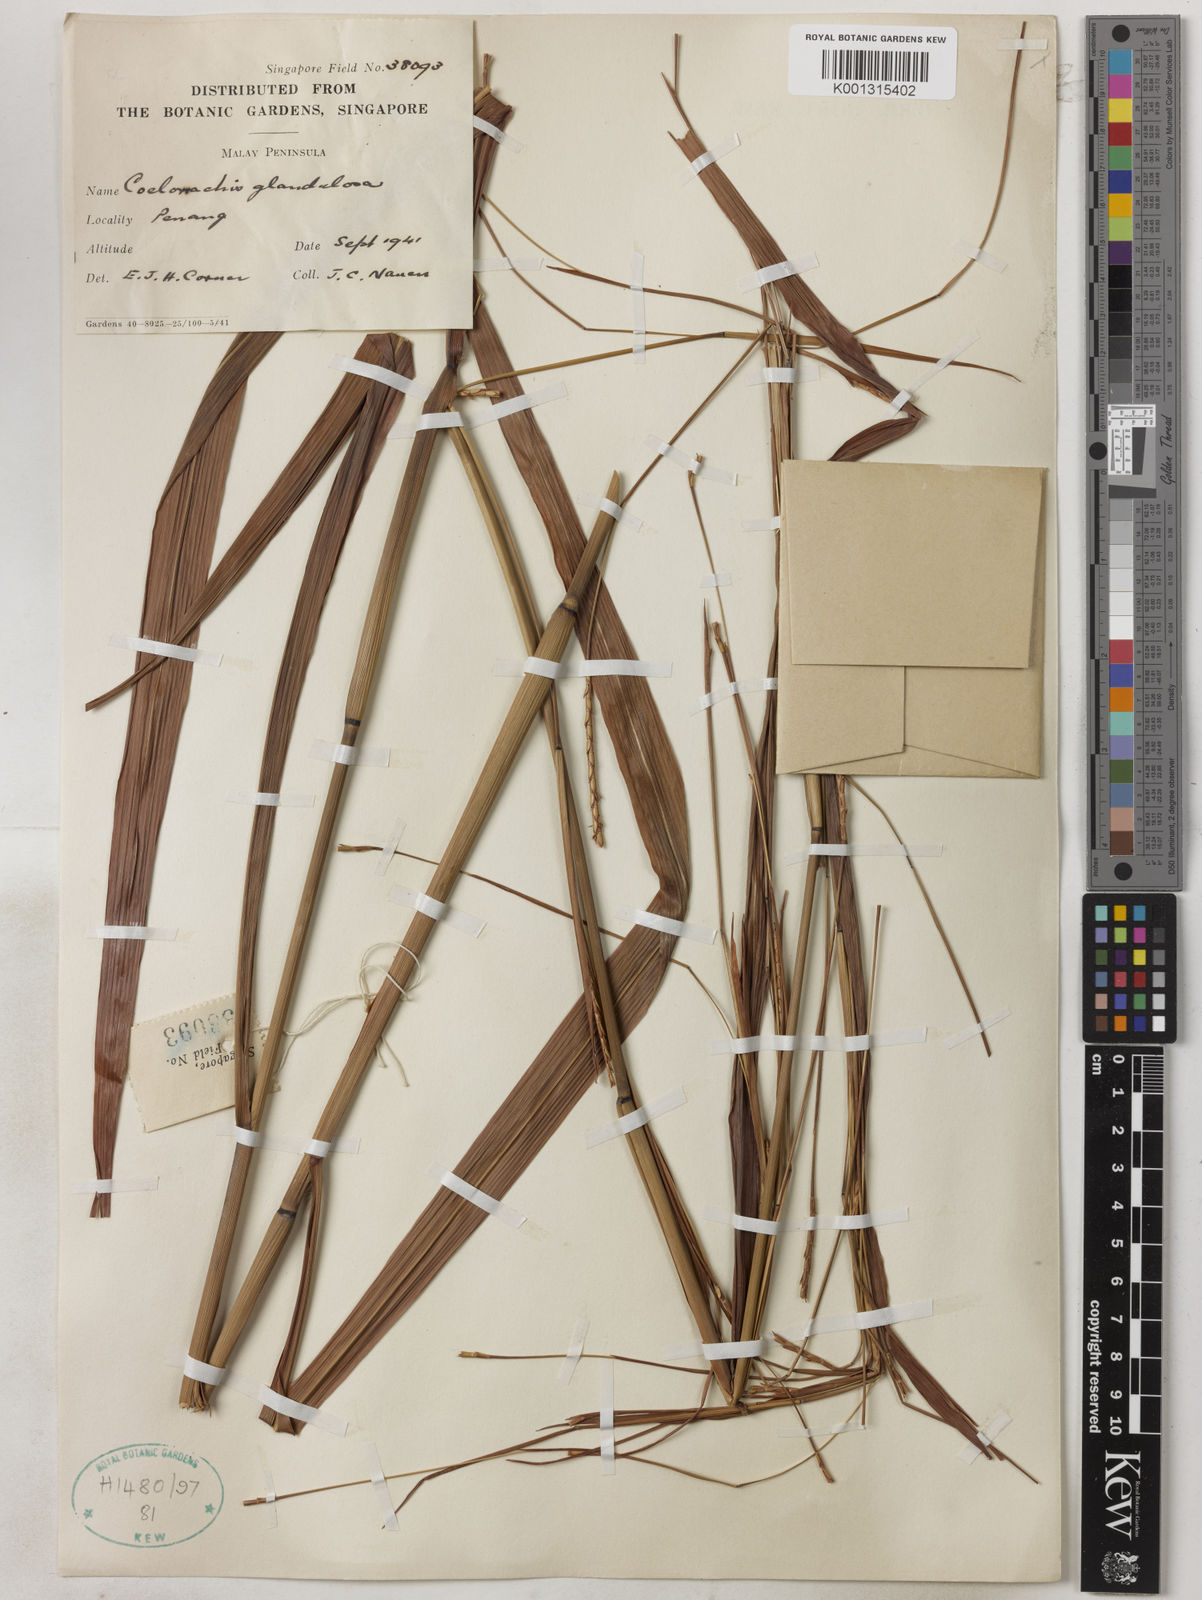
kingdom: Plantae
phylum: Tracheophyta
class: Liliopsida
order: Poales
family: Poaceae
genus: Rottboellia
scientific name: Rottboellia glandulosa
